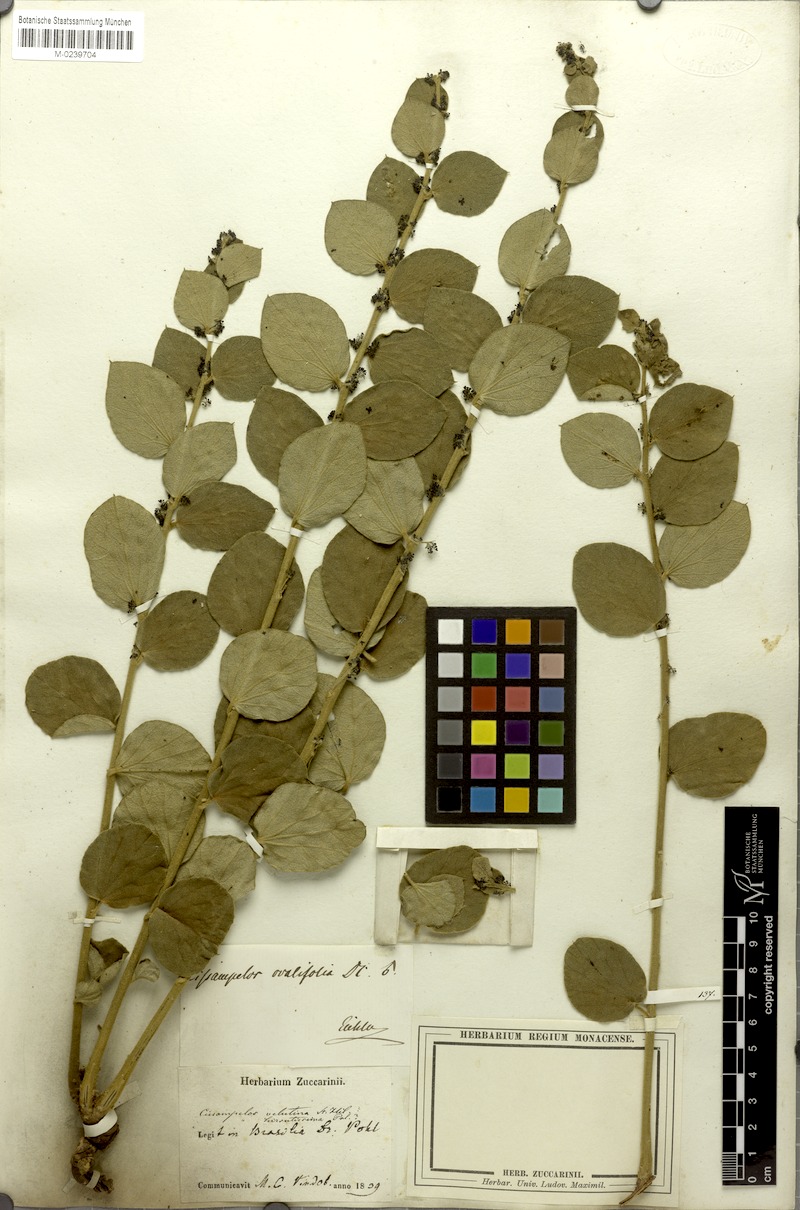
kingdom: Plantae
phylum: Tracheophyta
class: Magnoliopsida
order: Ranunculales
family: Menispermaceae
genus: Cissampelos
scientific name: Cissampelos ovalifolia
